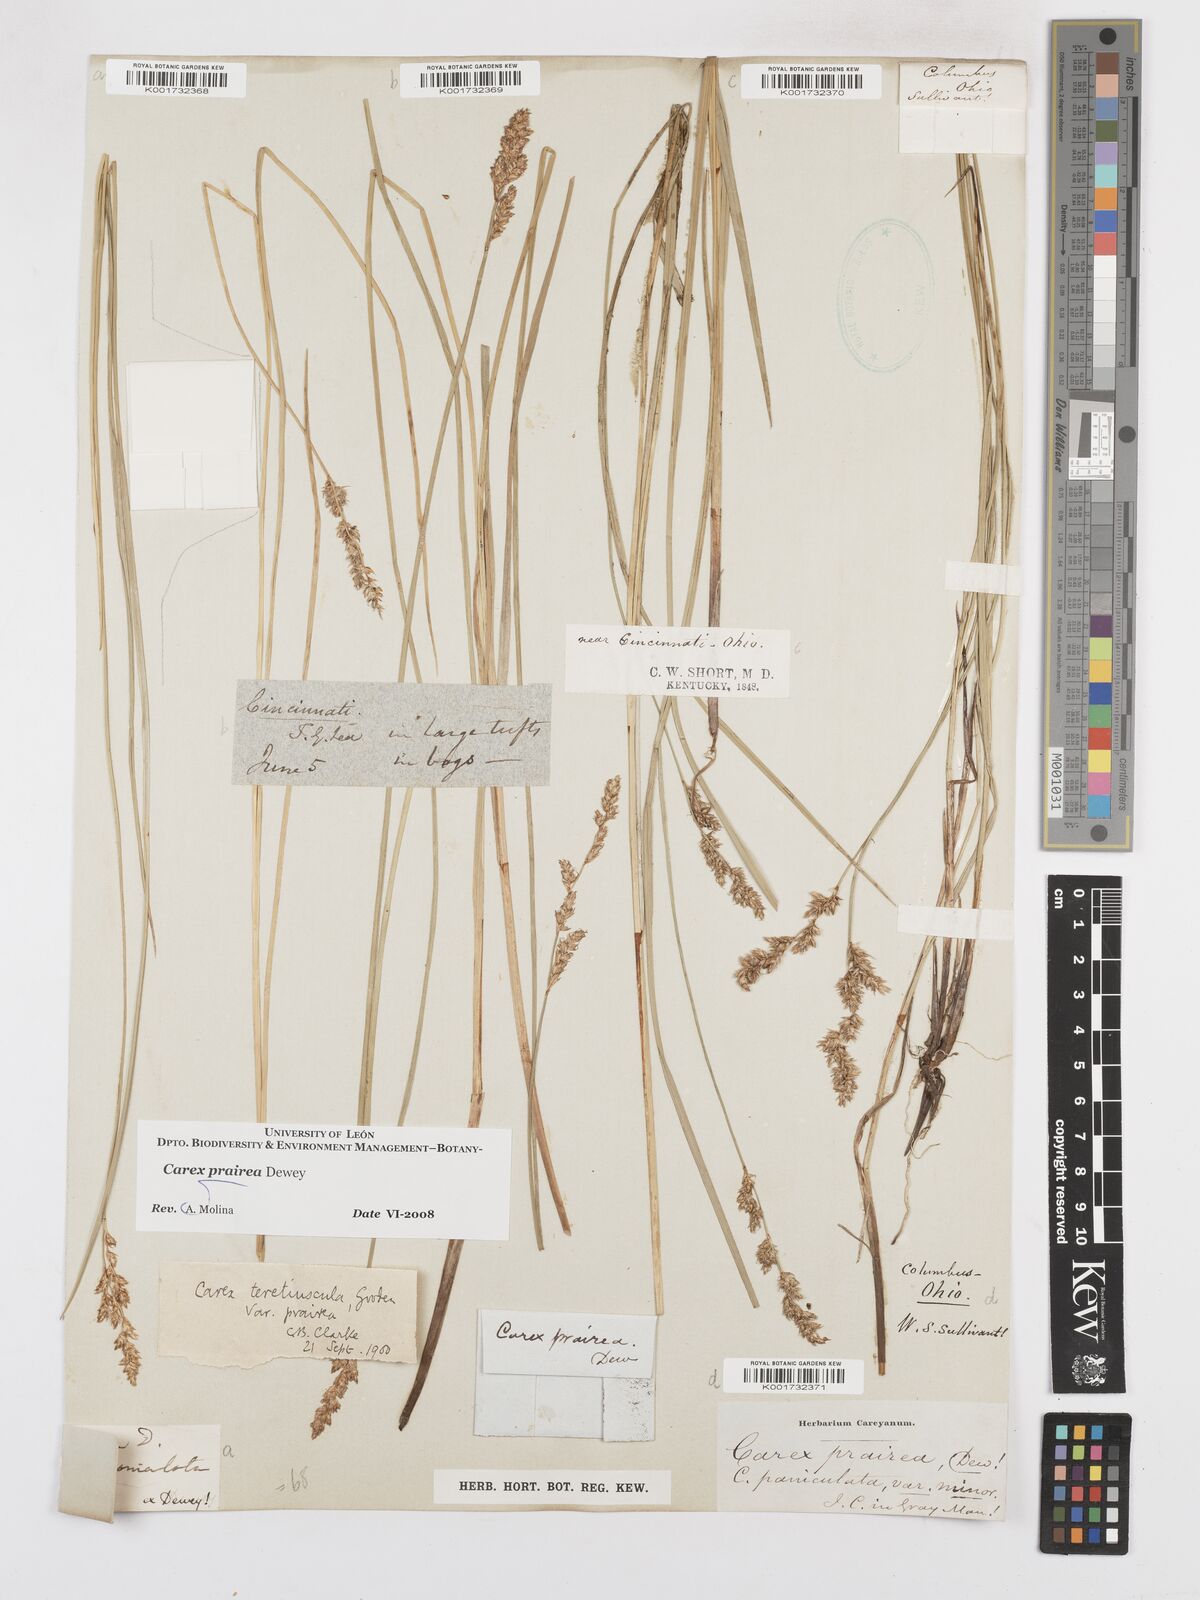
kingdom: Plantae
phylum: Tracheophyta
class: Liliopsida
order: Poales
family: Cyperaceae
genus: Carex
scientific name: Carex prairea
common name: Prairie sedge
